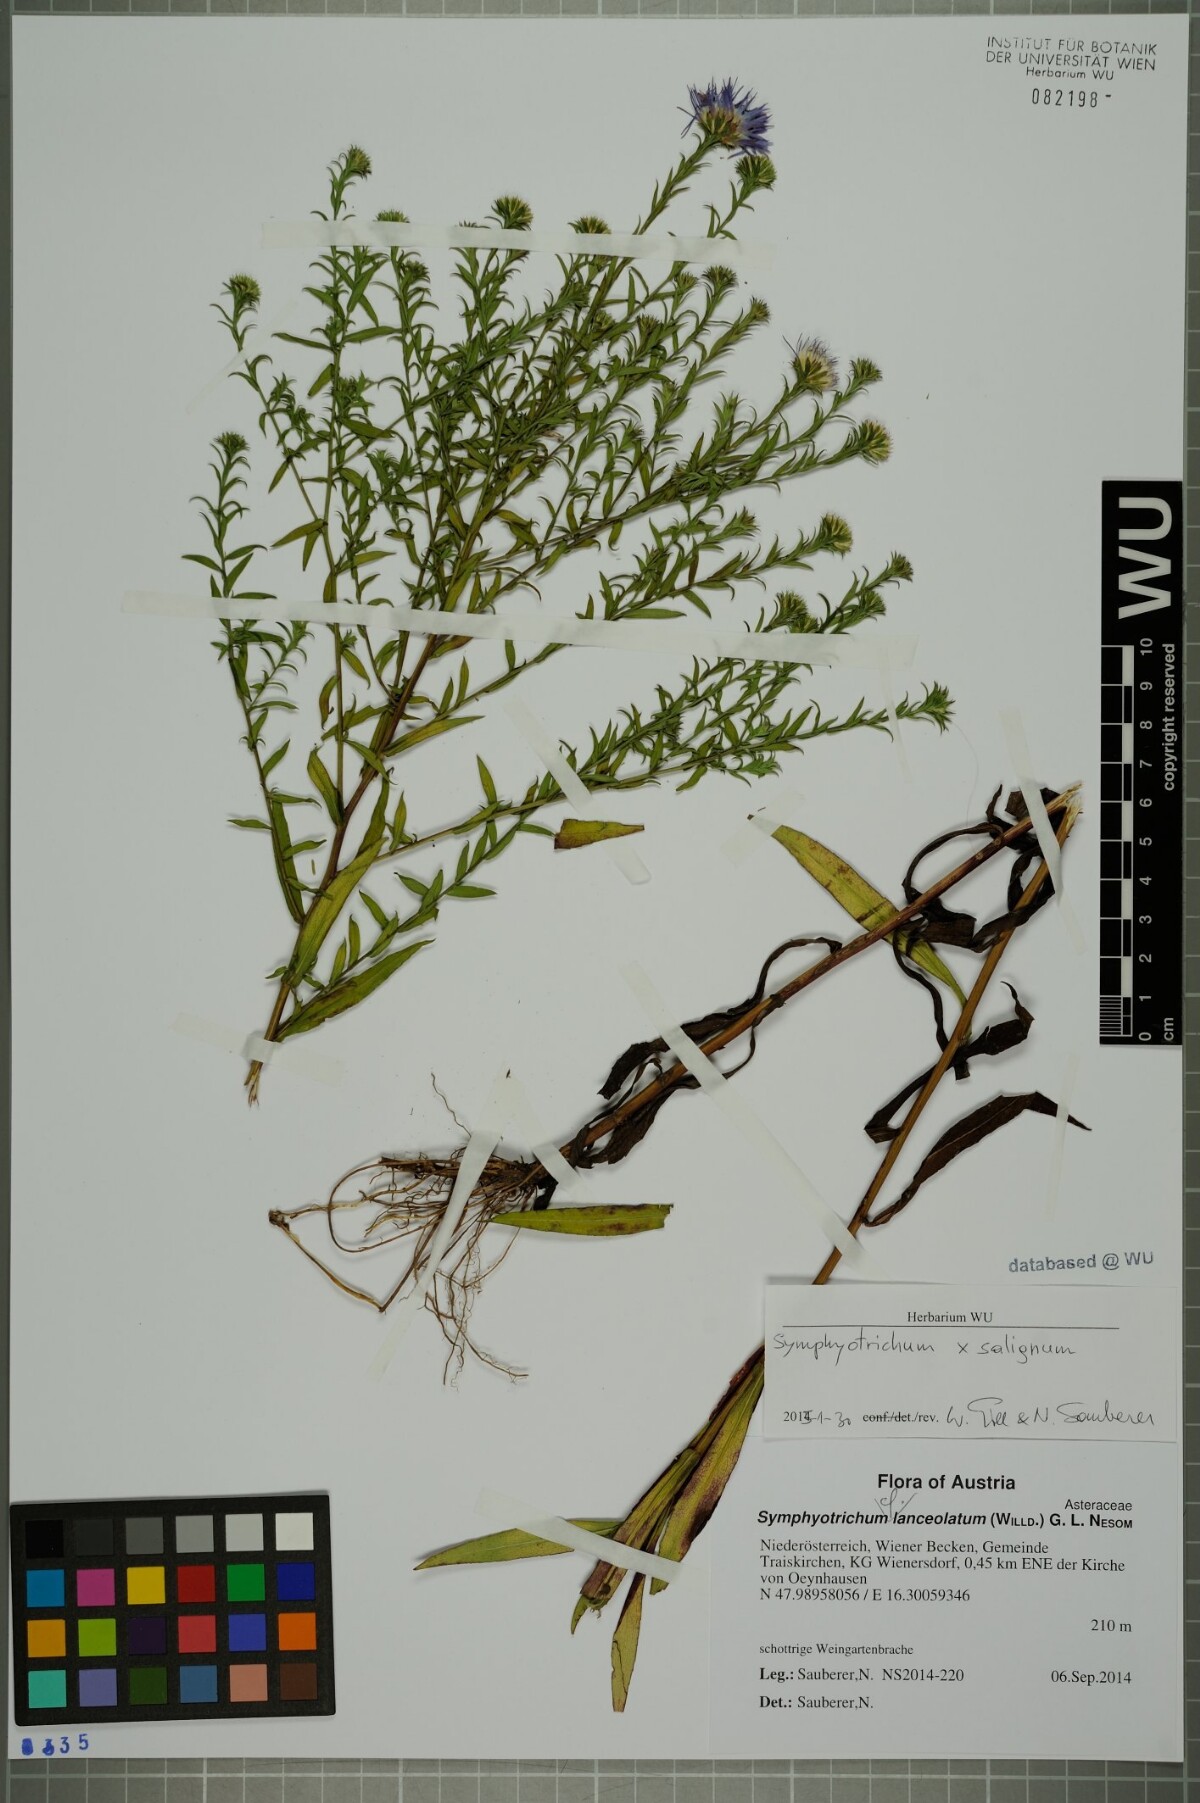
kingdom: Plantae
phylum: Tracheophyta
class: Magnoliopsida
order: Asterales
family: Asteraceae
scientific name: Asteraceae
